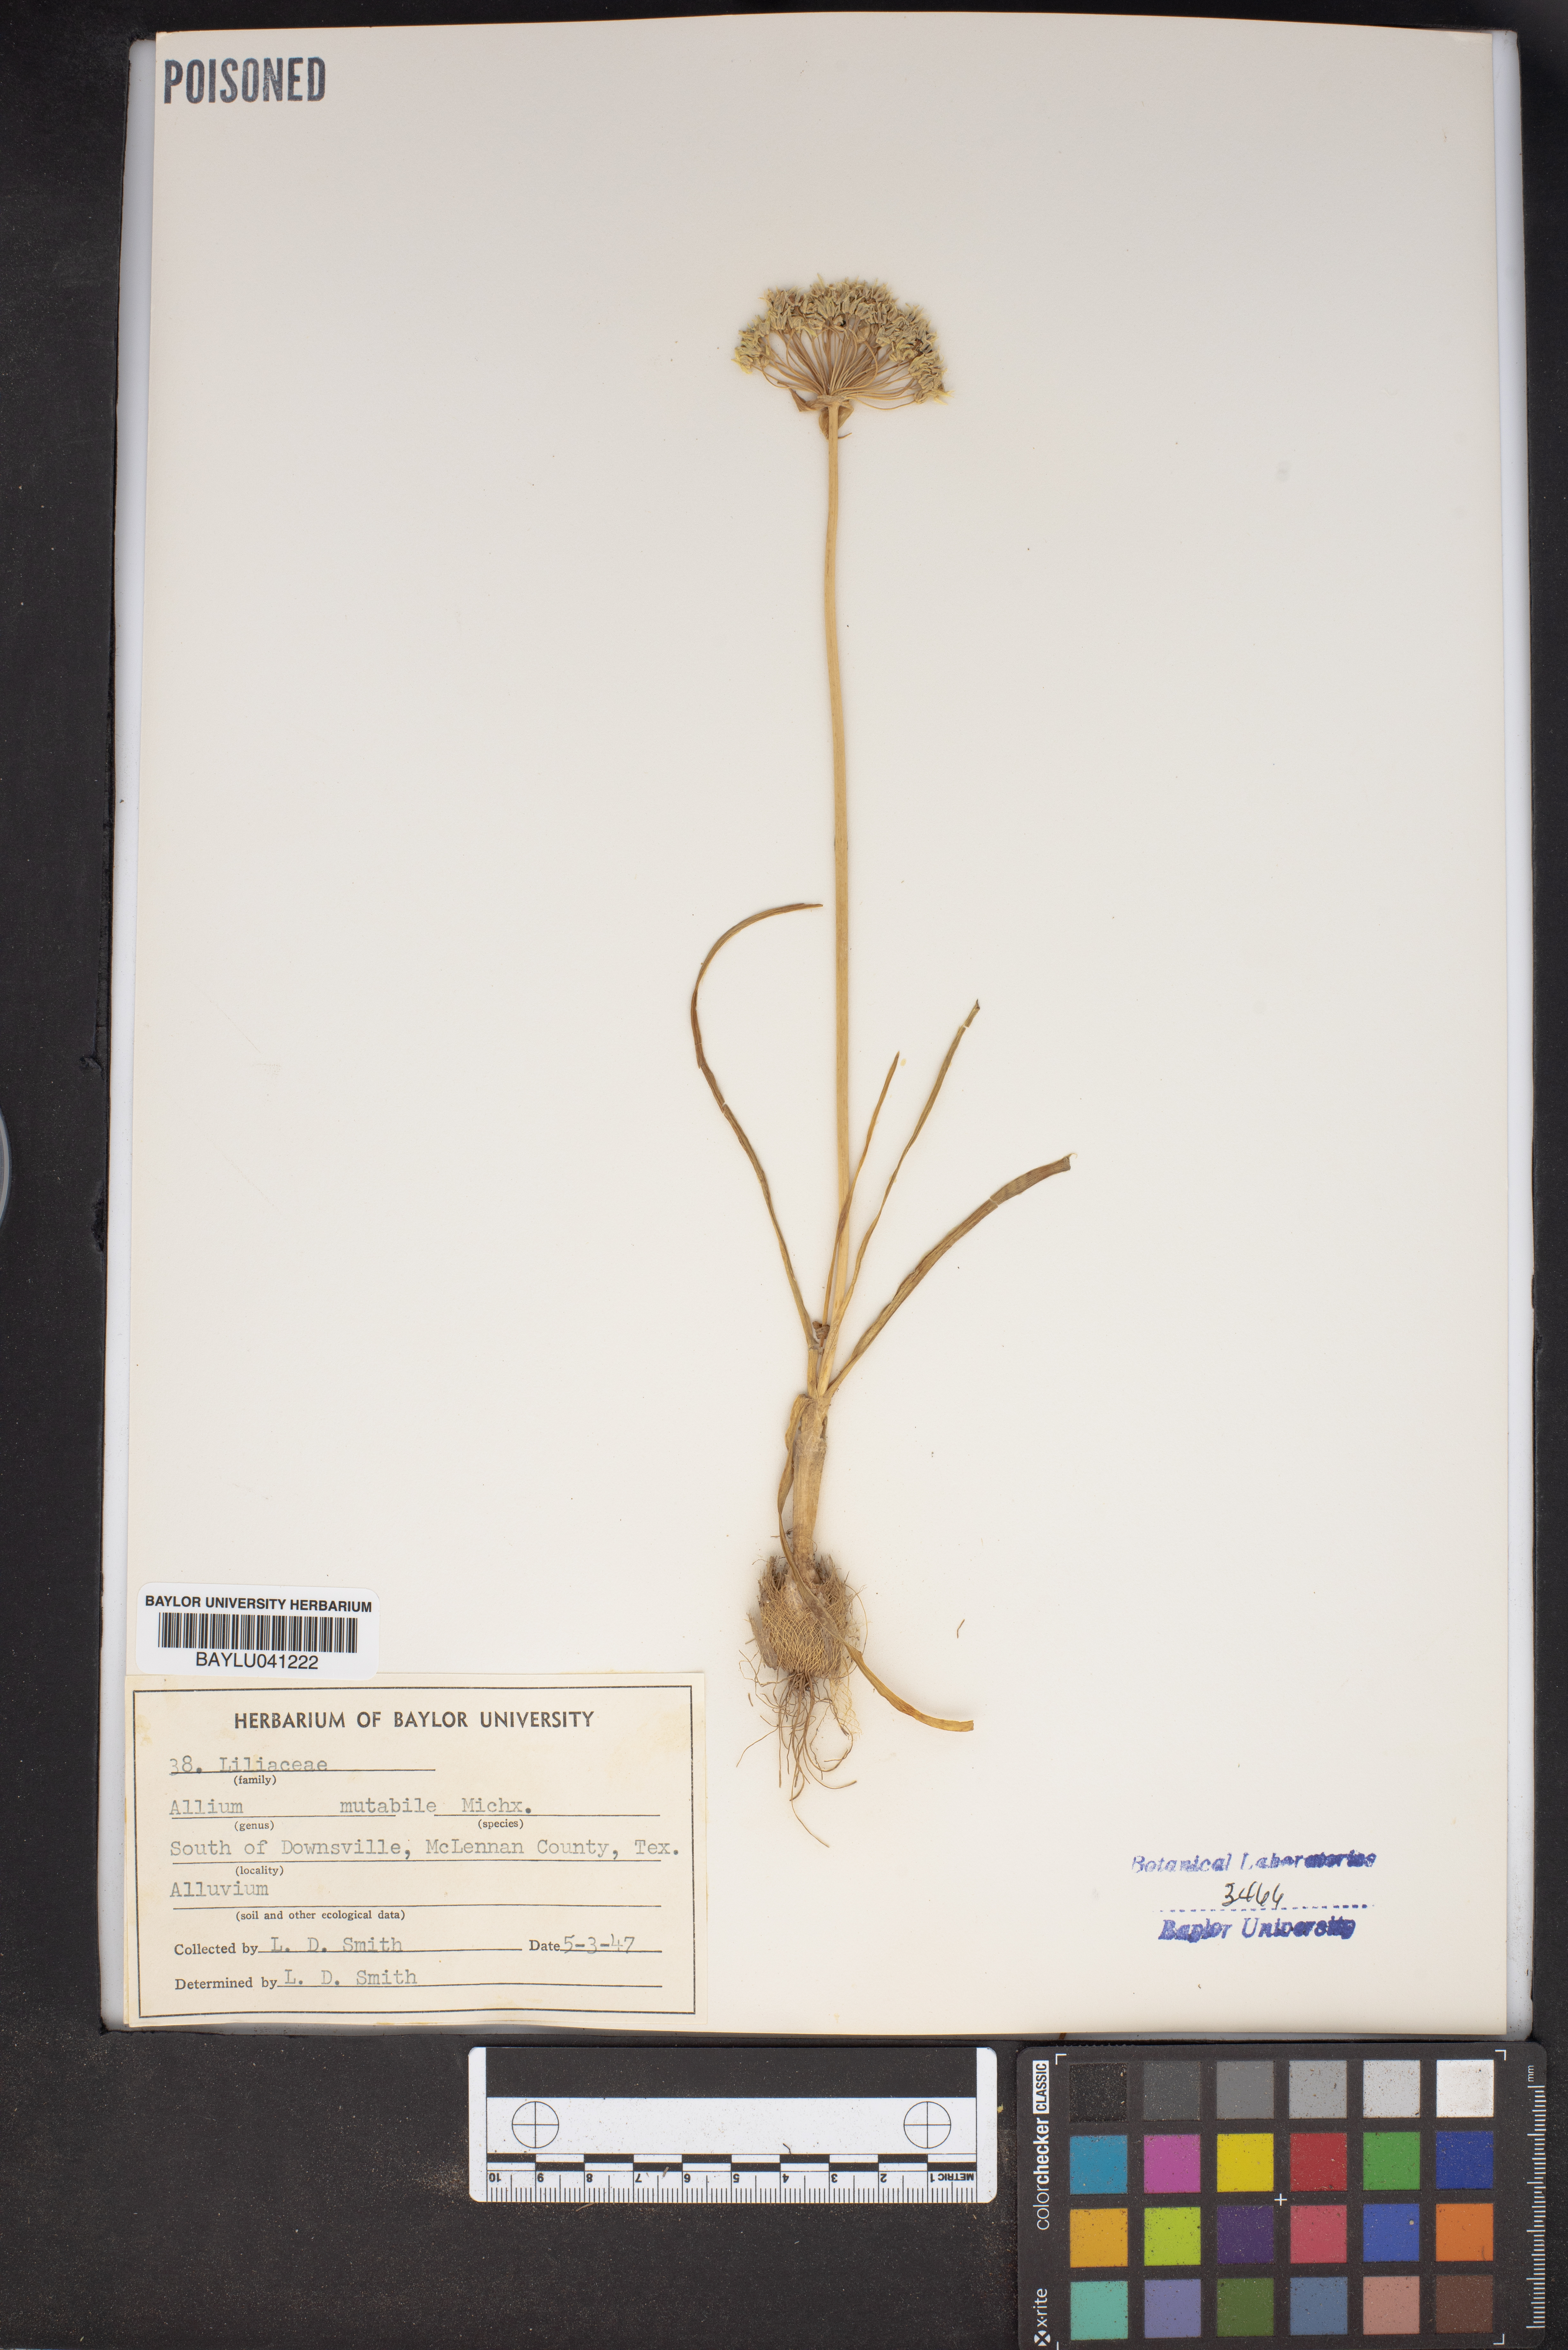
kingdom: Plantae
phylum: Tracheophyta
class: Liliopsida
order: Asparagales
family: Amaryllidaceae
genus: Allium
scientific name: Allium canadense
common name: Meadow garlic
